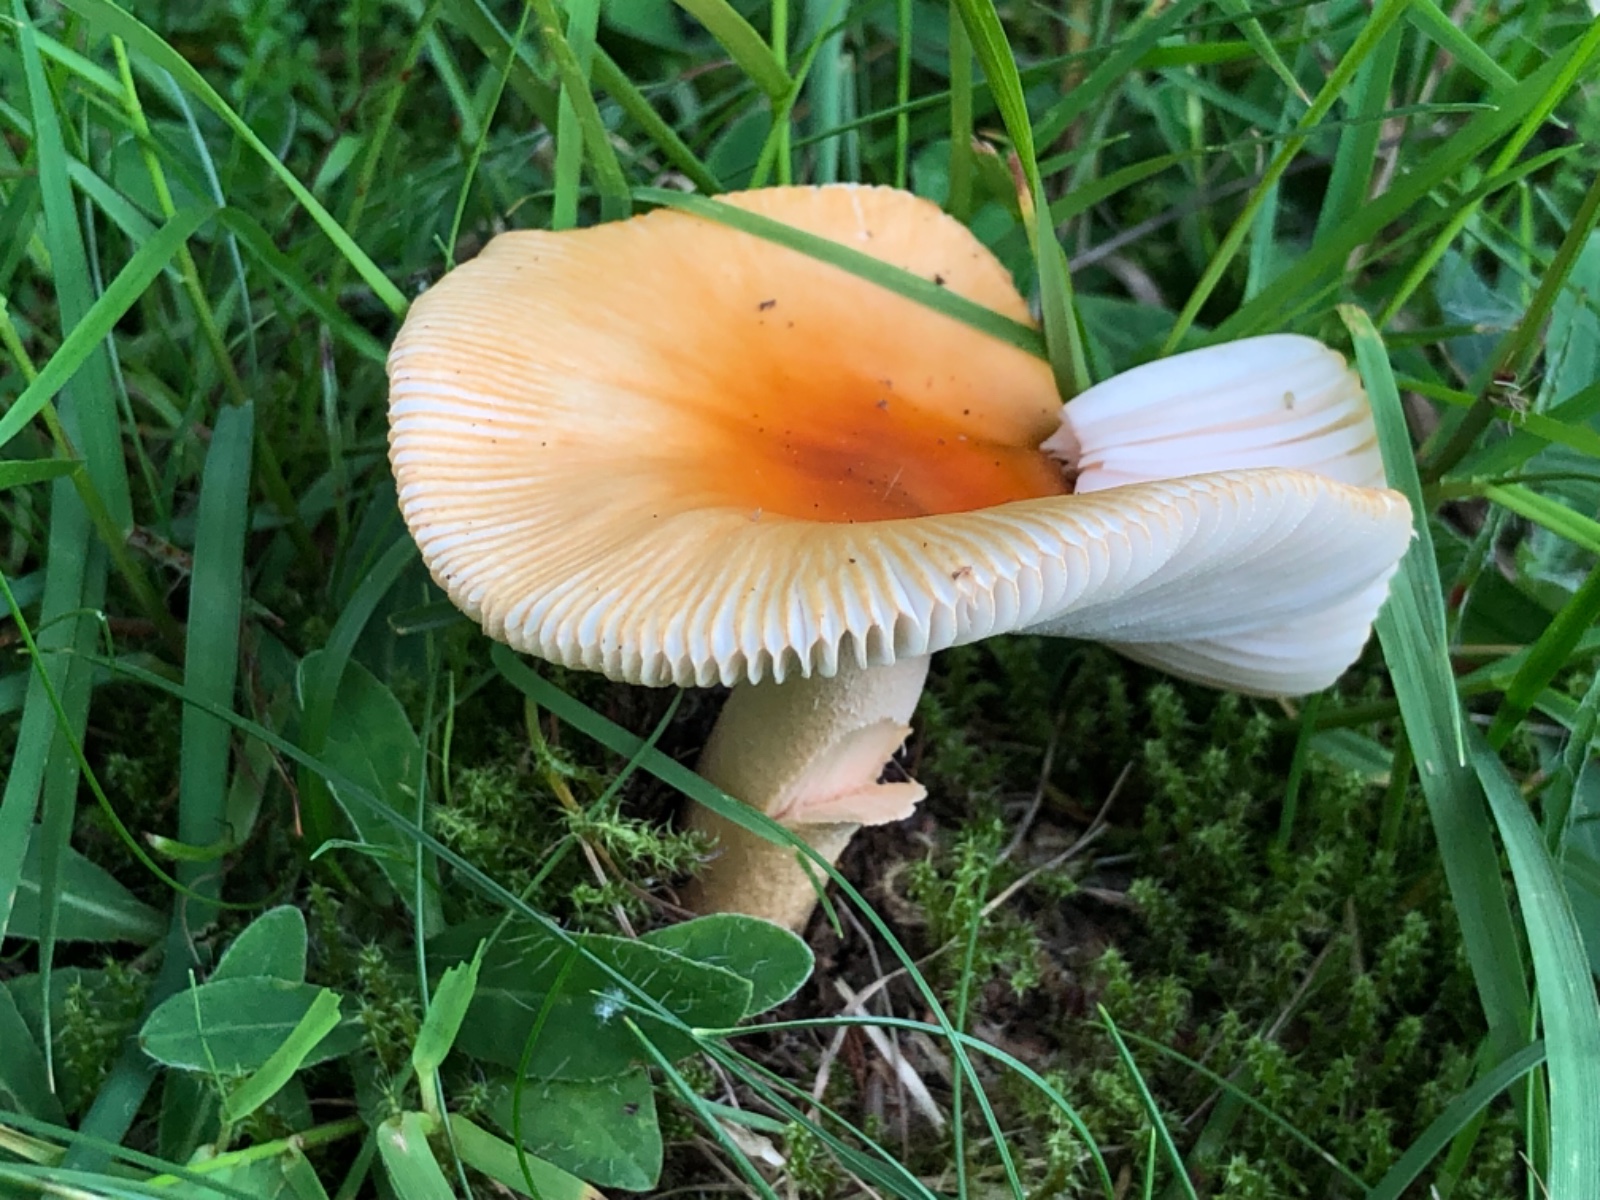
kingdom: Fungi
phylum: Basidiomycota
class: Agaricomycetes
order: Agaricales
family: Amanitaceae
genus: Amanita
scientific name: Amanita crocea
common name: gylden kam-fluesvamp
